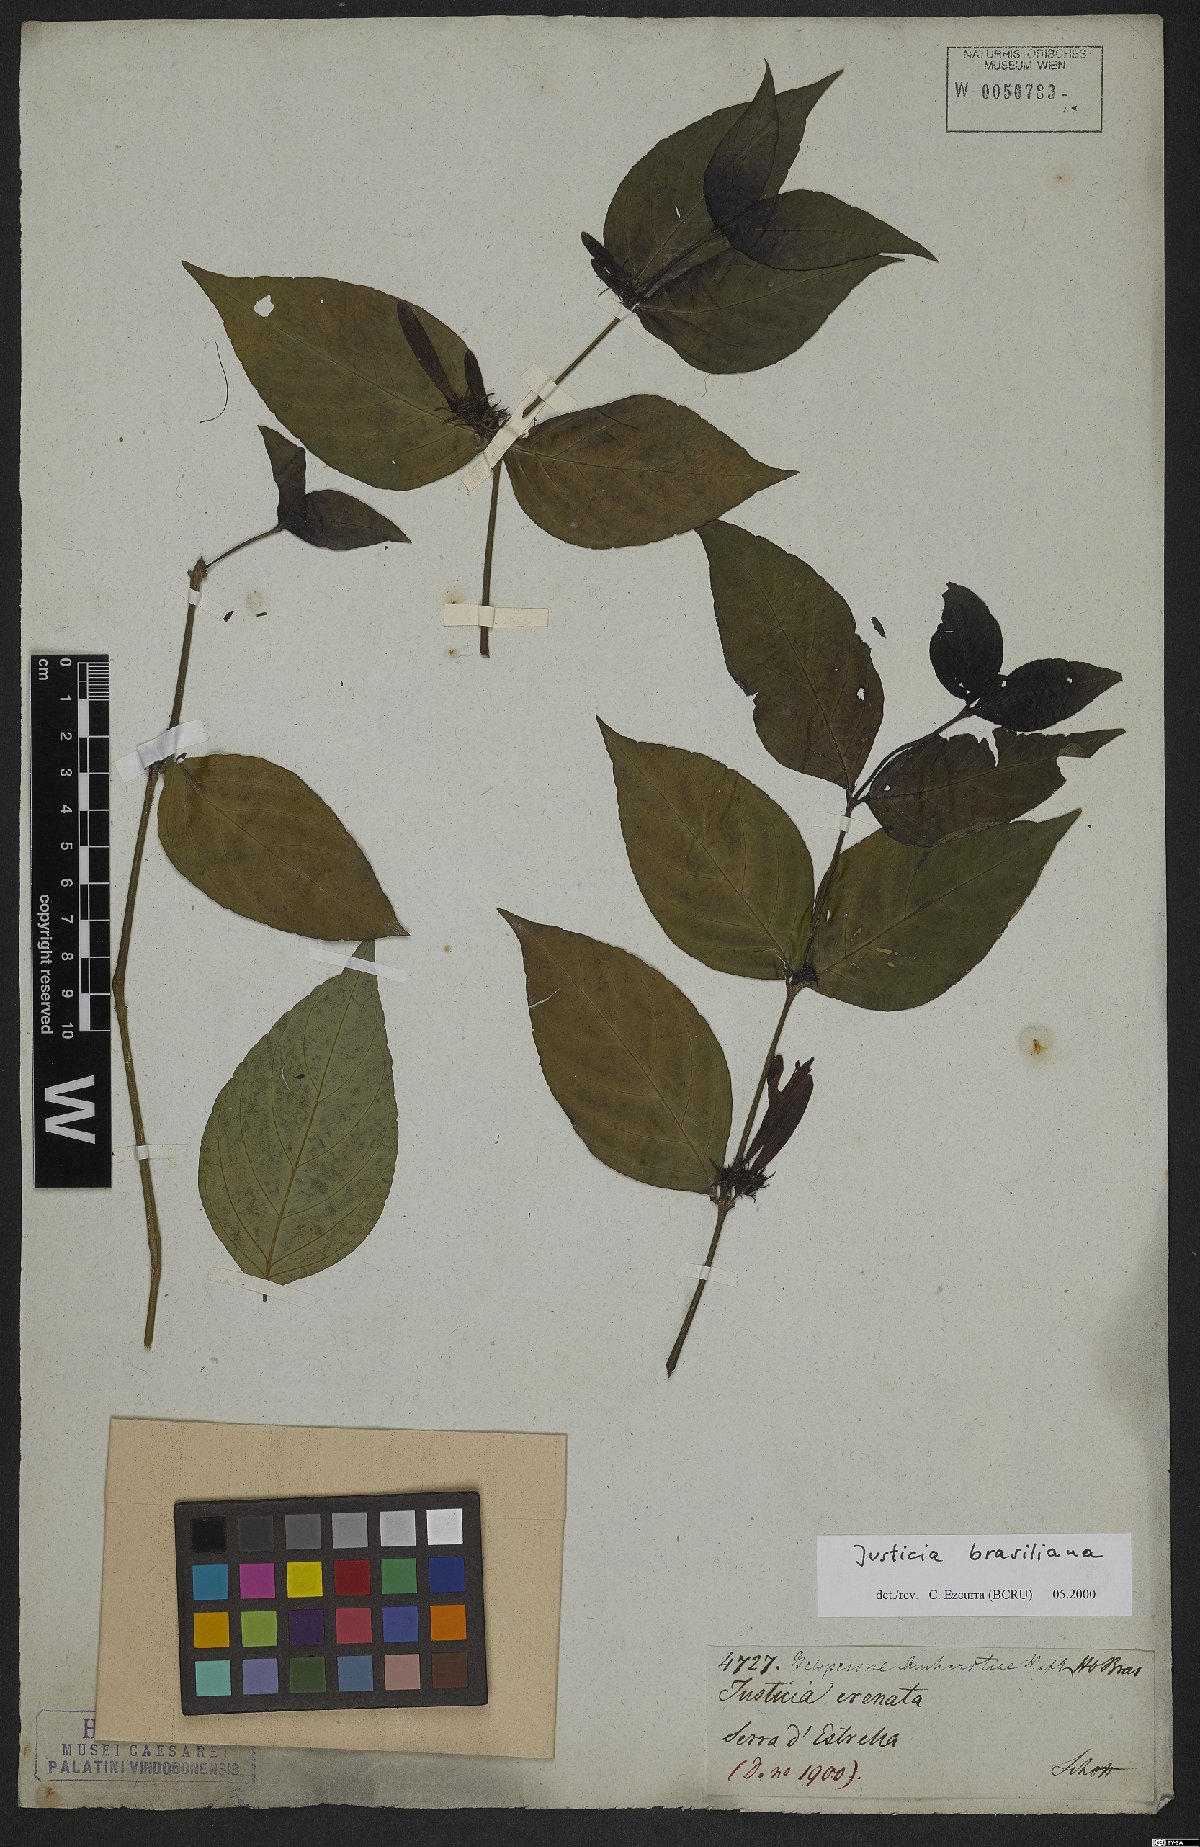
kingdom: Plantae
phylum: Tracheophyta
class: Magnoliopsida
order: Lamiales
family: Acanthaceae
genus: Justicia
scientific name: Justicia brasiliana
